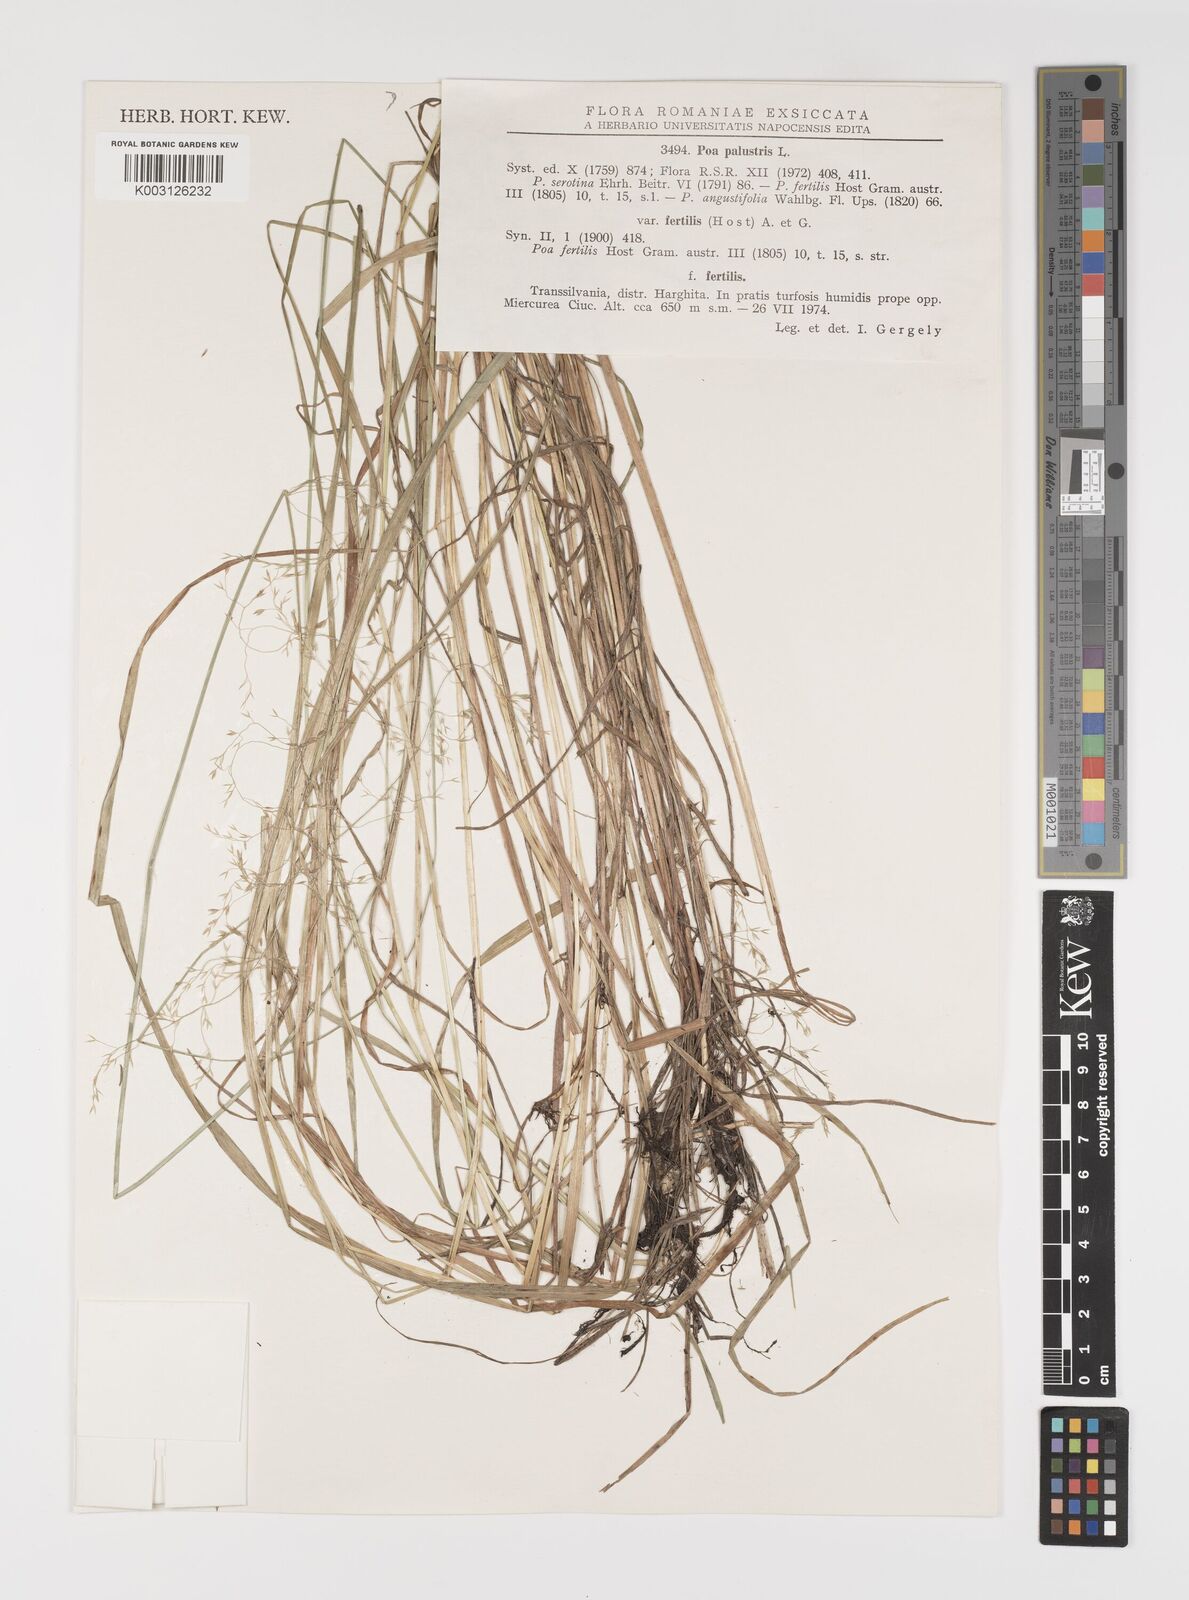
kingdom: Plantae
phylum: Tracheophyta
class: Liliopsida
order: Poales
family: Poaceae
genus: Poa
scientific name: Poa palustris
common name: Swamp meadow-grass
